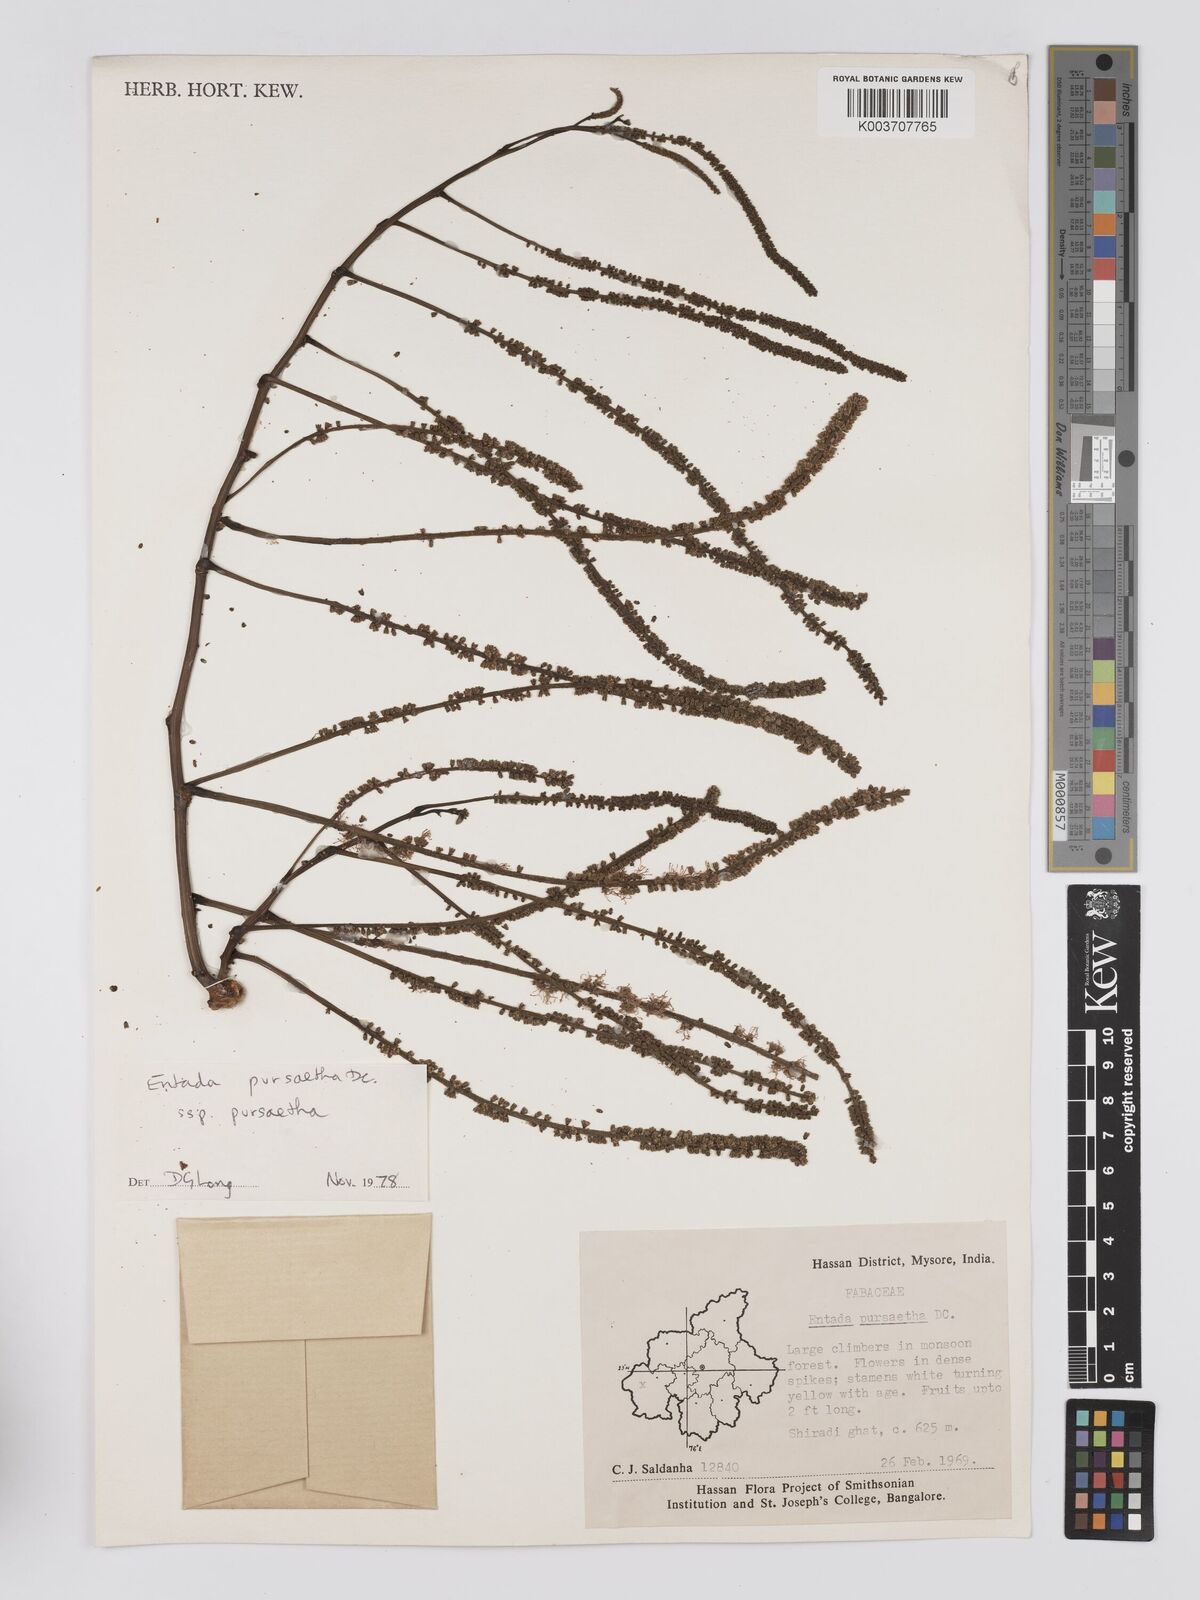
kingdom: Plantae
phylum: Tracheophyta
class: Magnoliopsida
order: Fabales
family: Fabaceae
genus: Entada
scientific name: Entada rheedei
